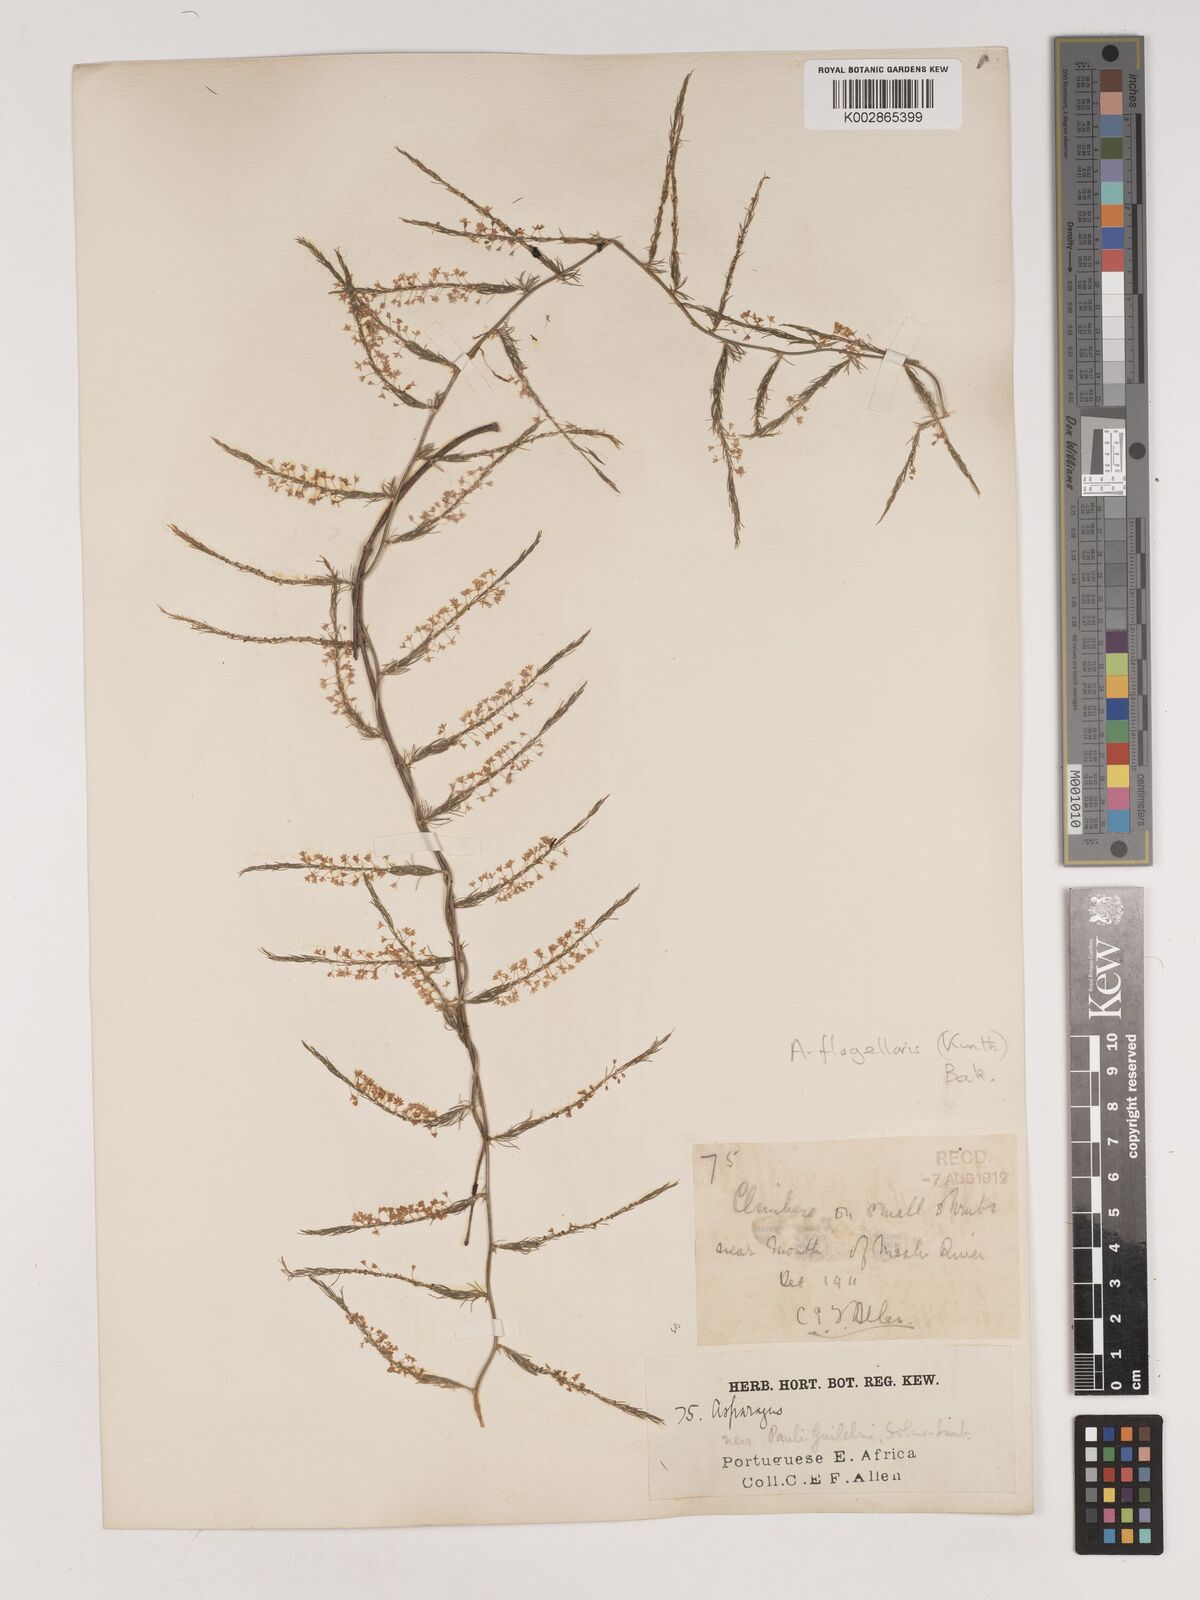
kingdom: Plantae
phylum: Tracheophyta
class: Liliopsida
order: Asparagales
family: Asparagaceae
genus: Asparagus
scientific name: Asparagus flagellaris
